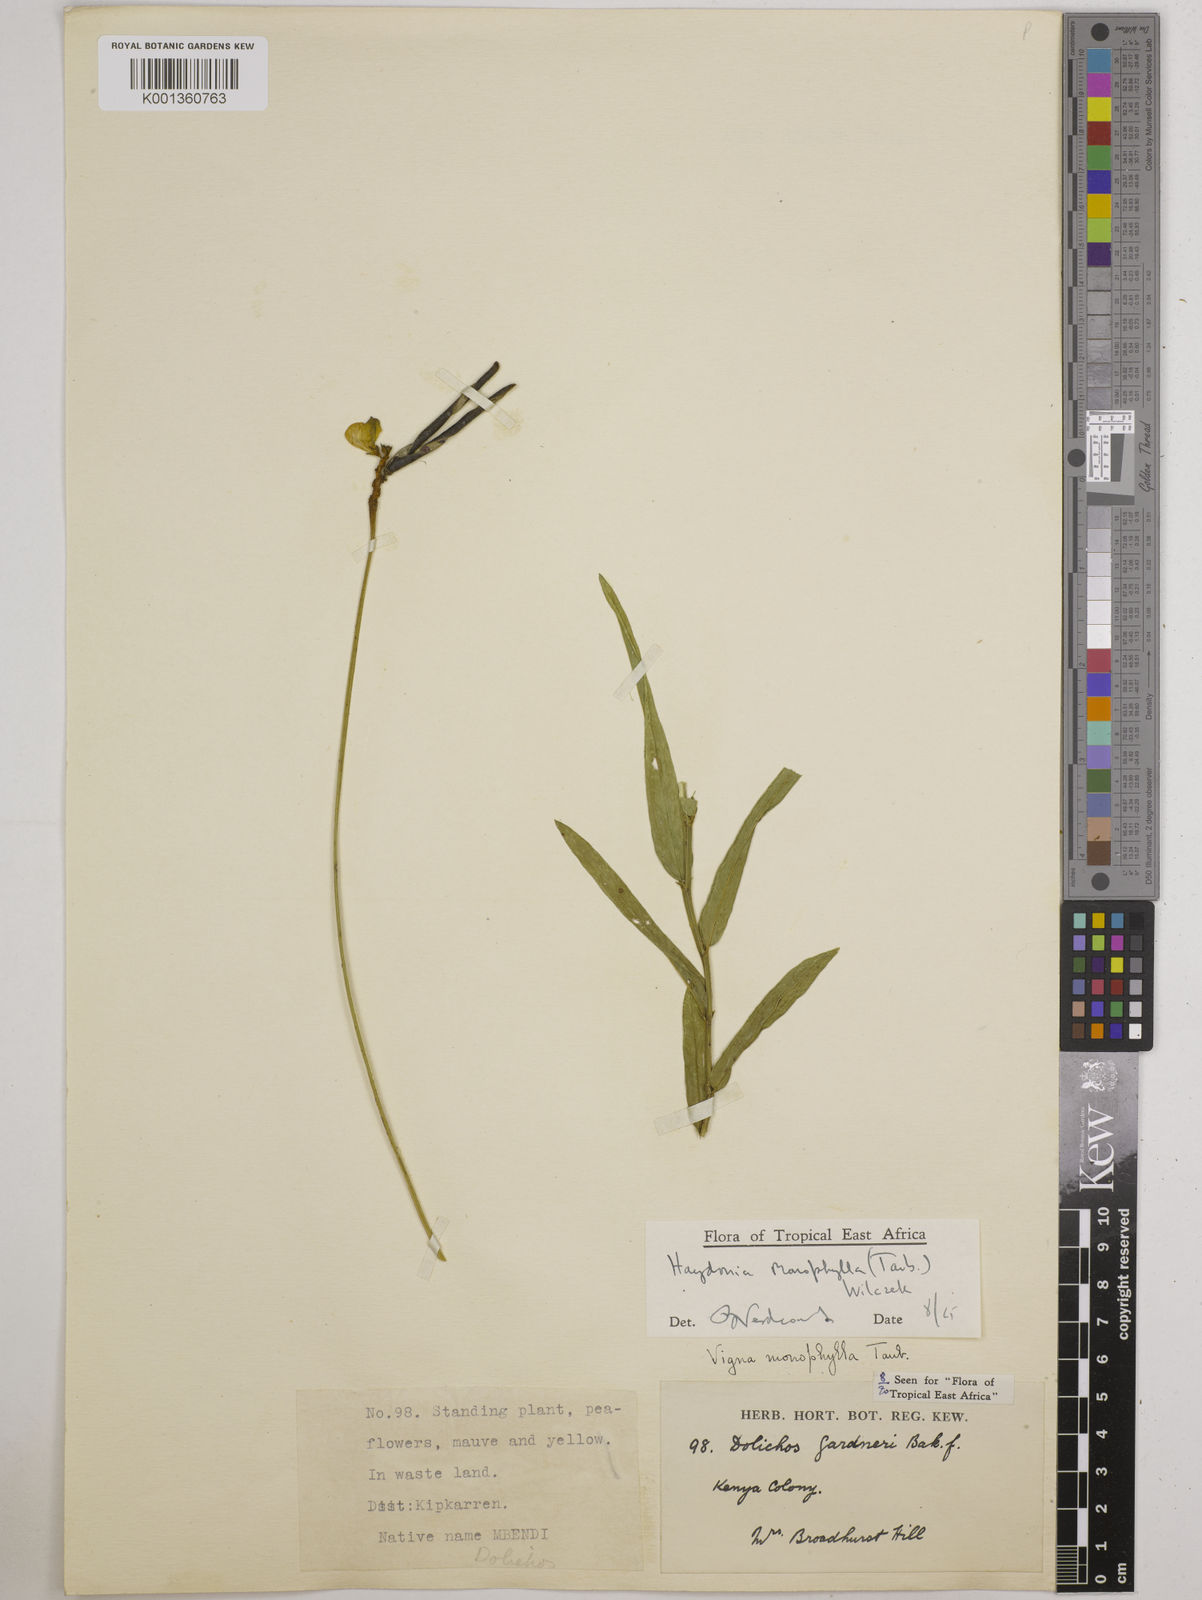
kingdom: Plantae
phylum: Tracheophyta
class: Magnoliopsida
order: Fabales
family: Fabaceae
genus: Vigna
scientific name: Vigna monophylla
